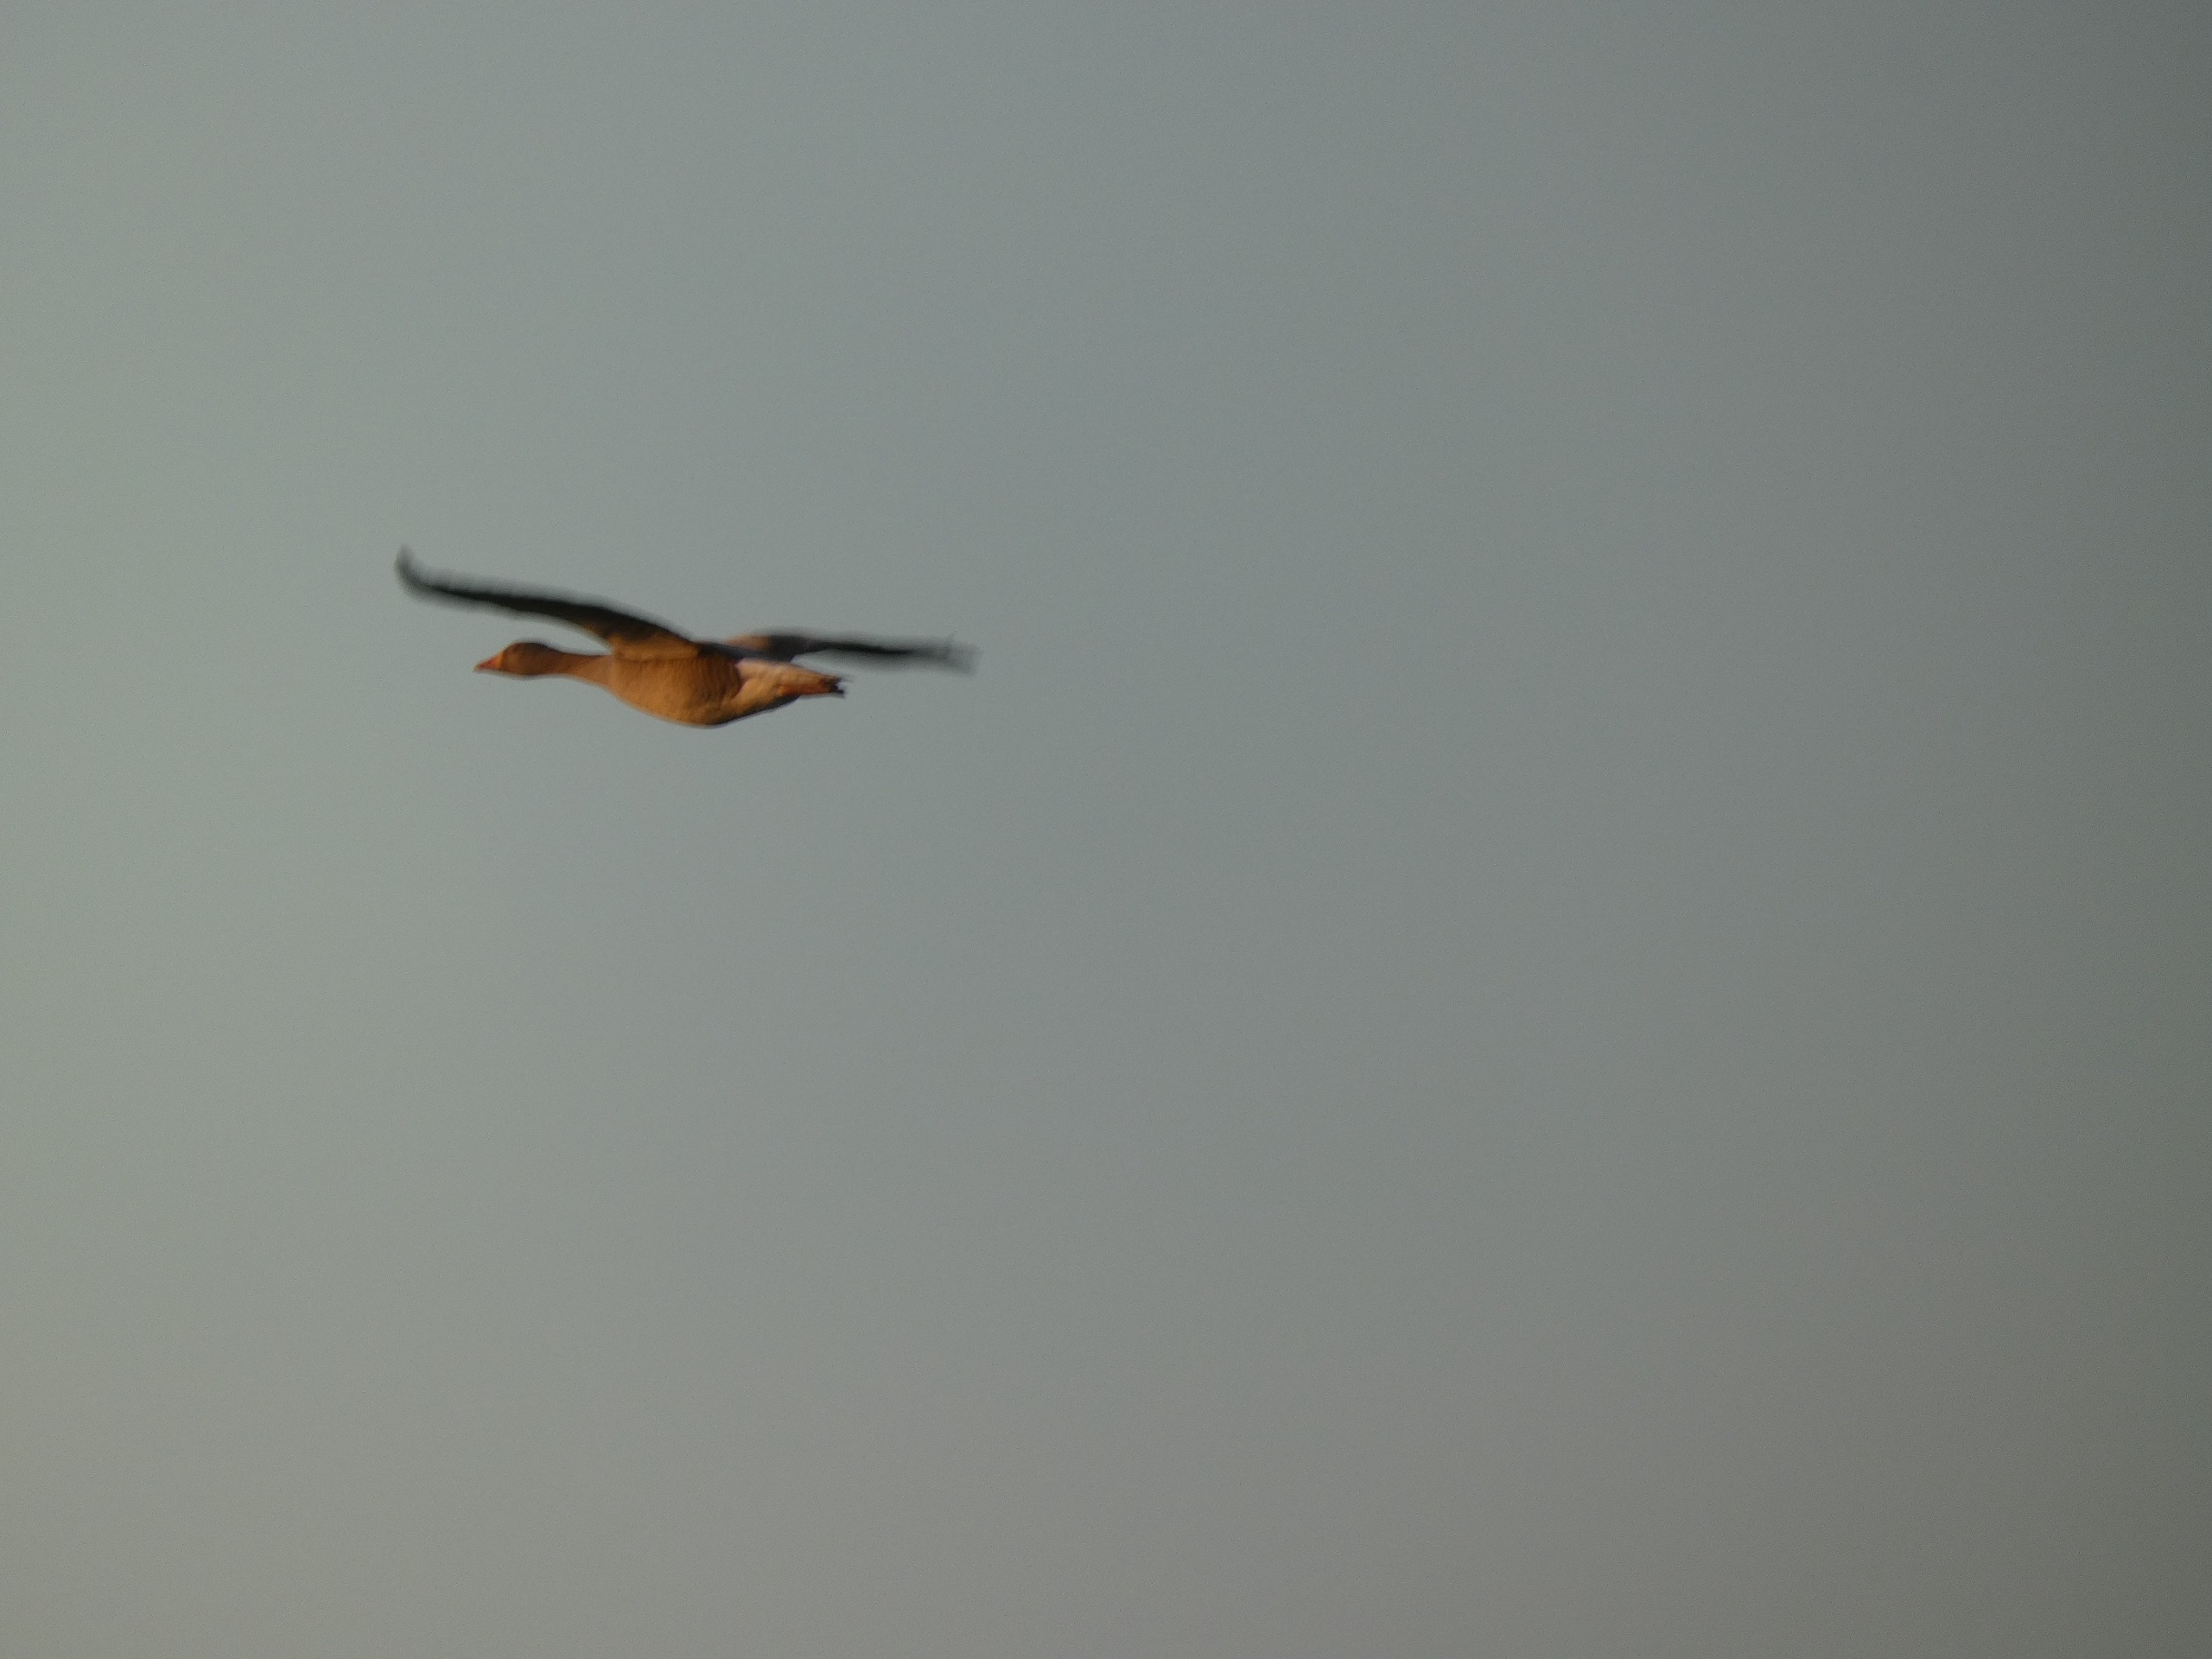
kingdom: Animalia
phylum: Chordata
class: Aves
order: Anseriformes
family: Anatidae
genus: Anser
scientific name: Anser anser
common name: Grågås
